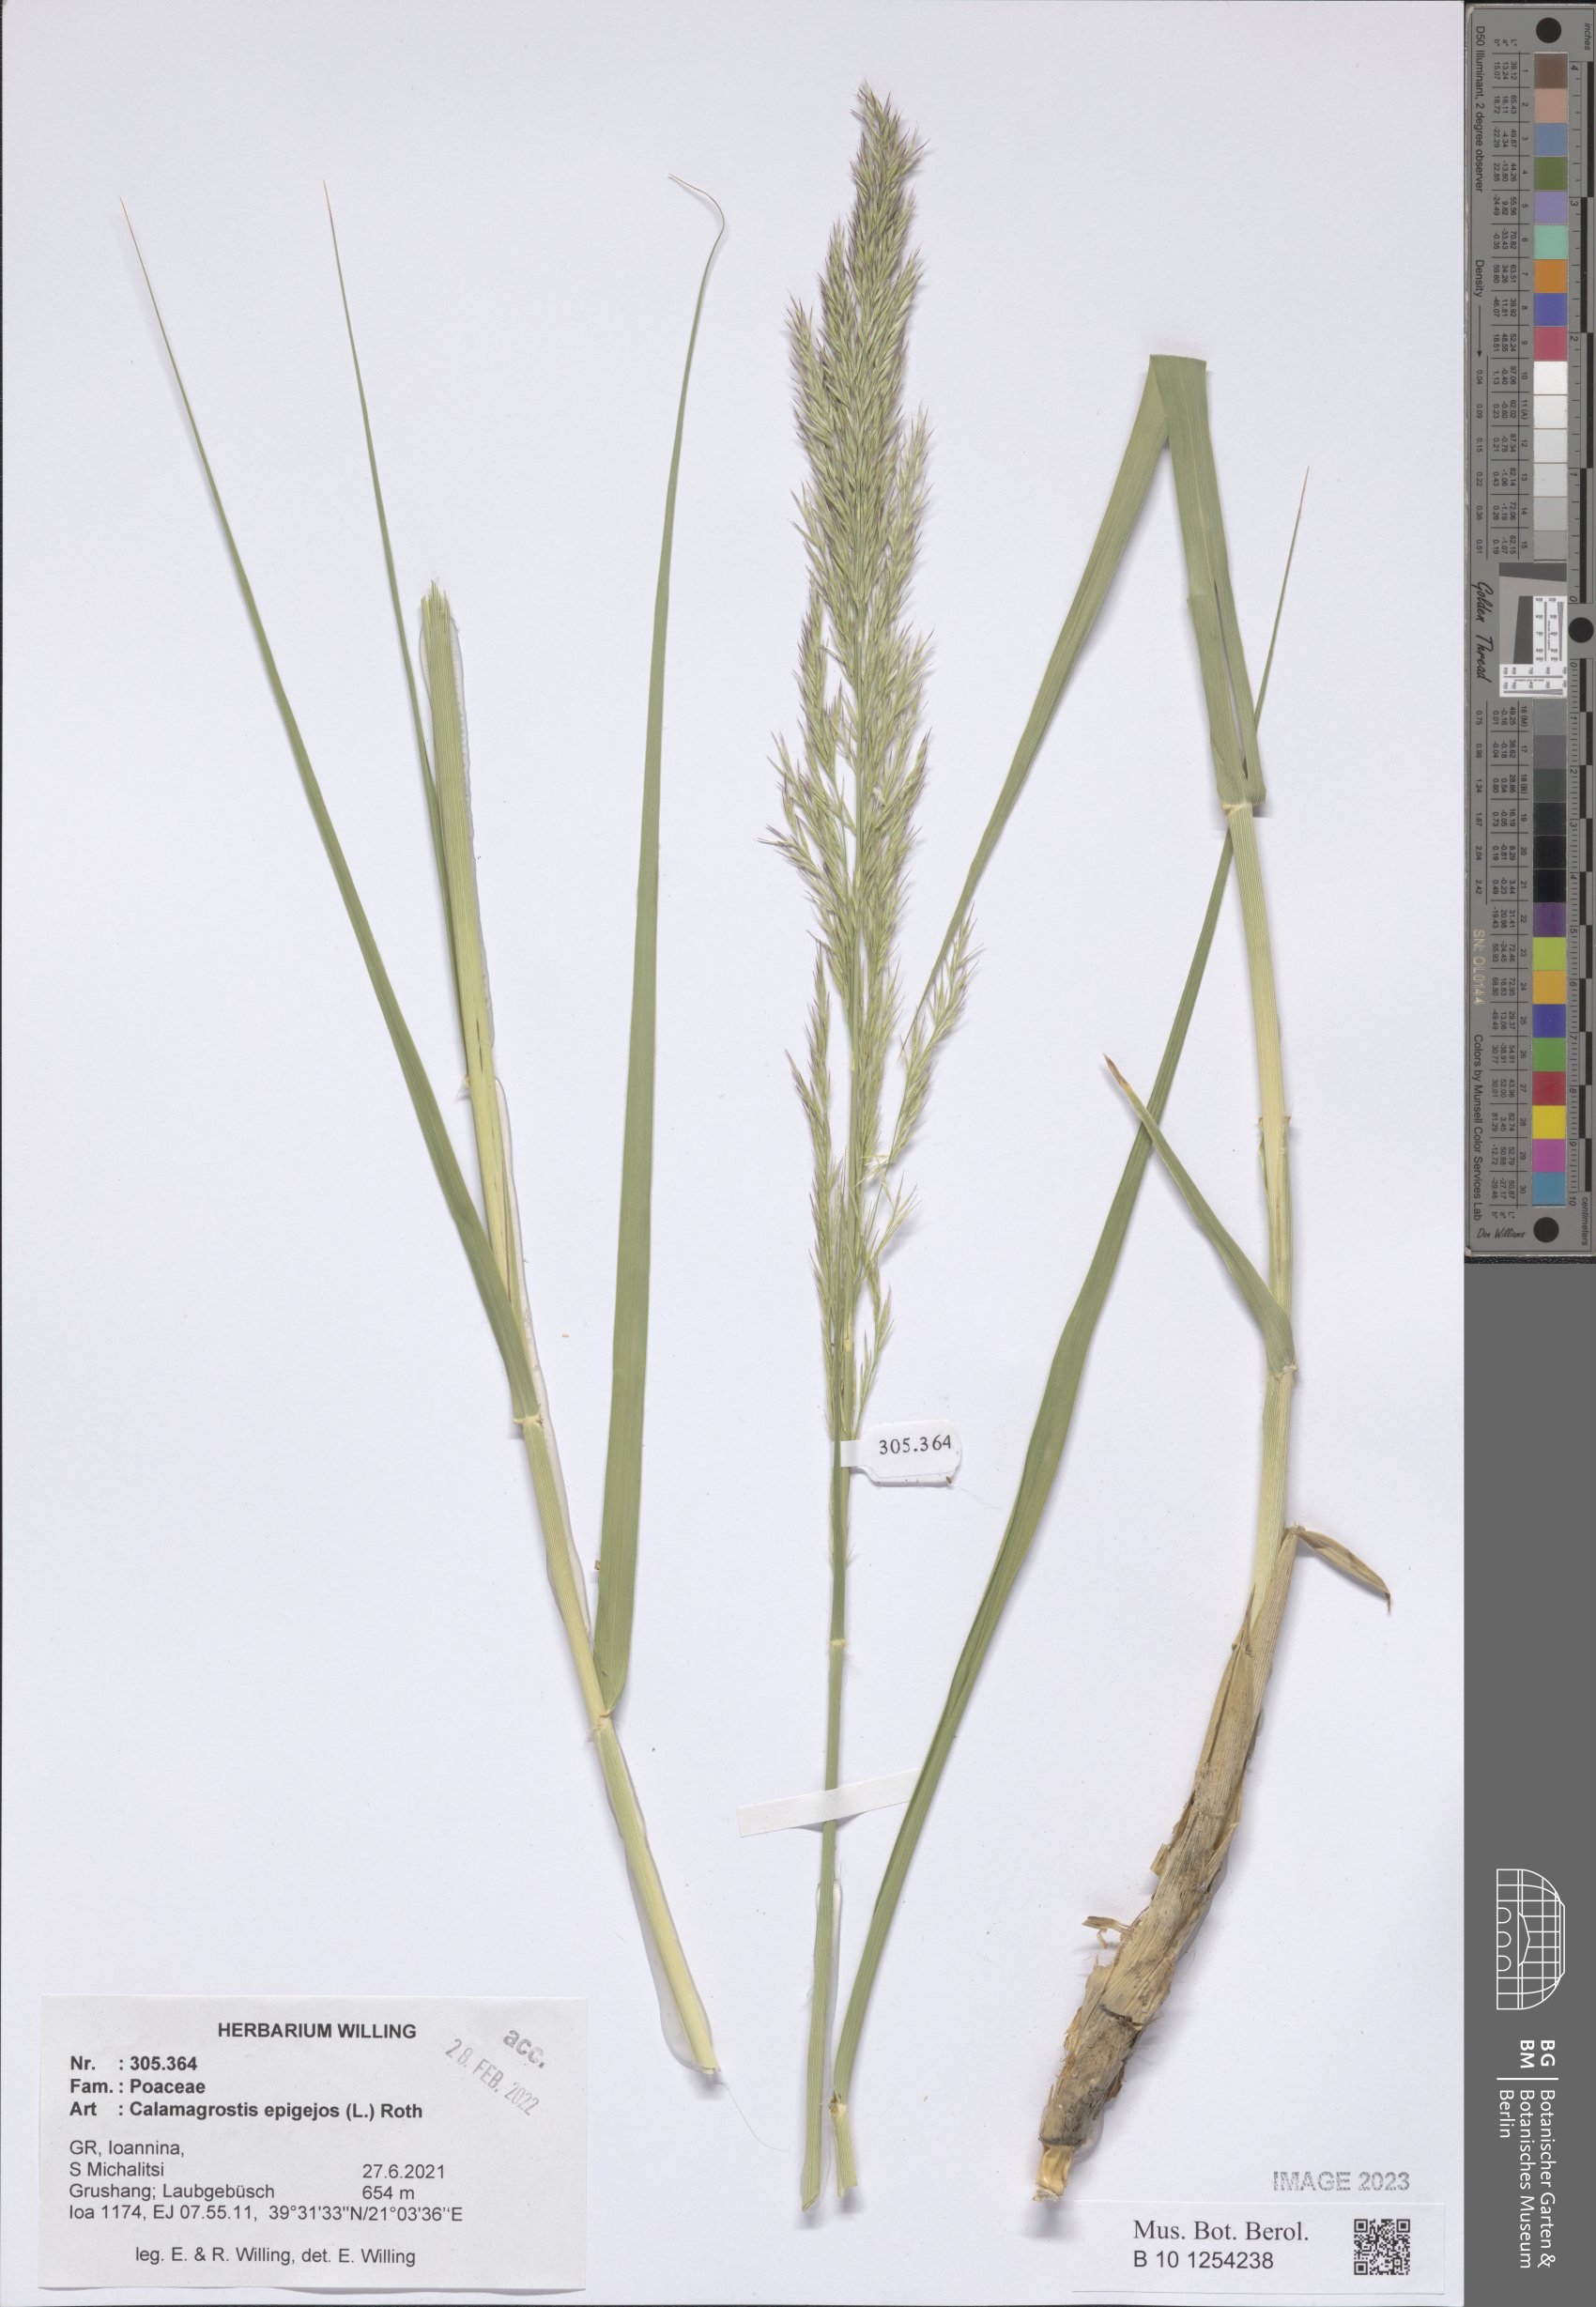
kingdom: Plantae
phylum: Tracheophyta
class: Liliopsida
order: Poales
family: Poaceae
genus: Calamagrostis
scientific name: Calamagrostis epigejos
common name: Wood small-reed
